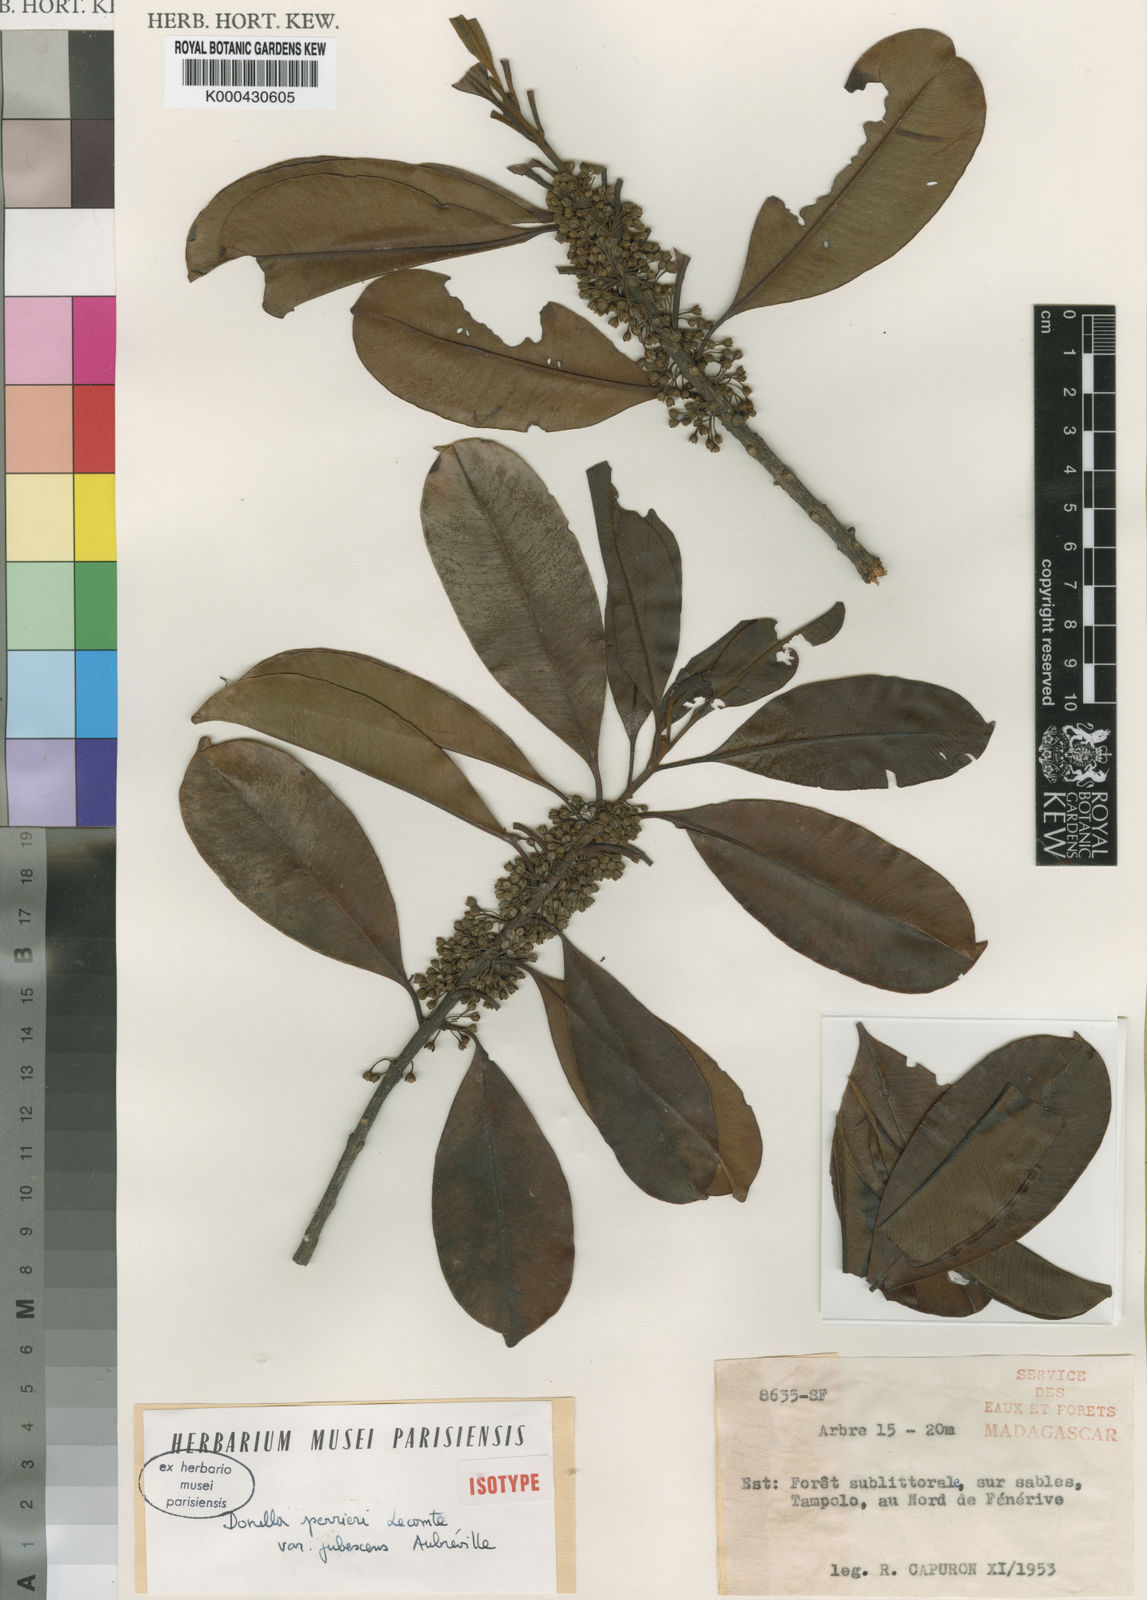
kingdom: Plantae
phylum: Tracheophyta
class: Magnoliopsida
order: Ericales
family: Sapotaceae
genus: Donella
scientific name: Donella perrieri
